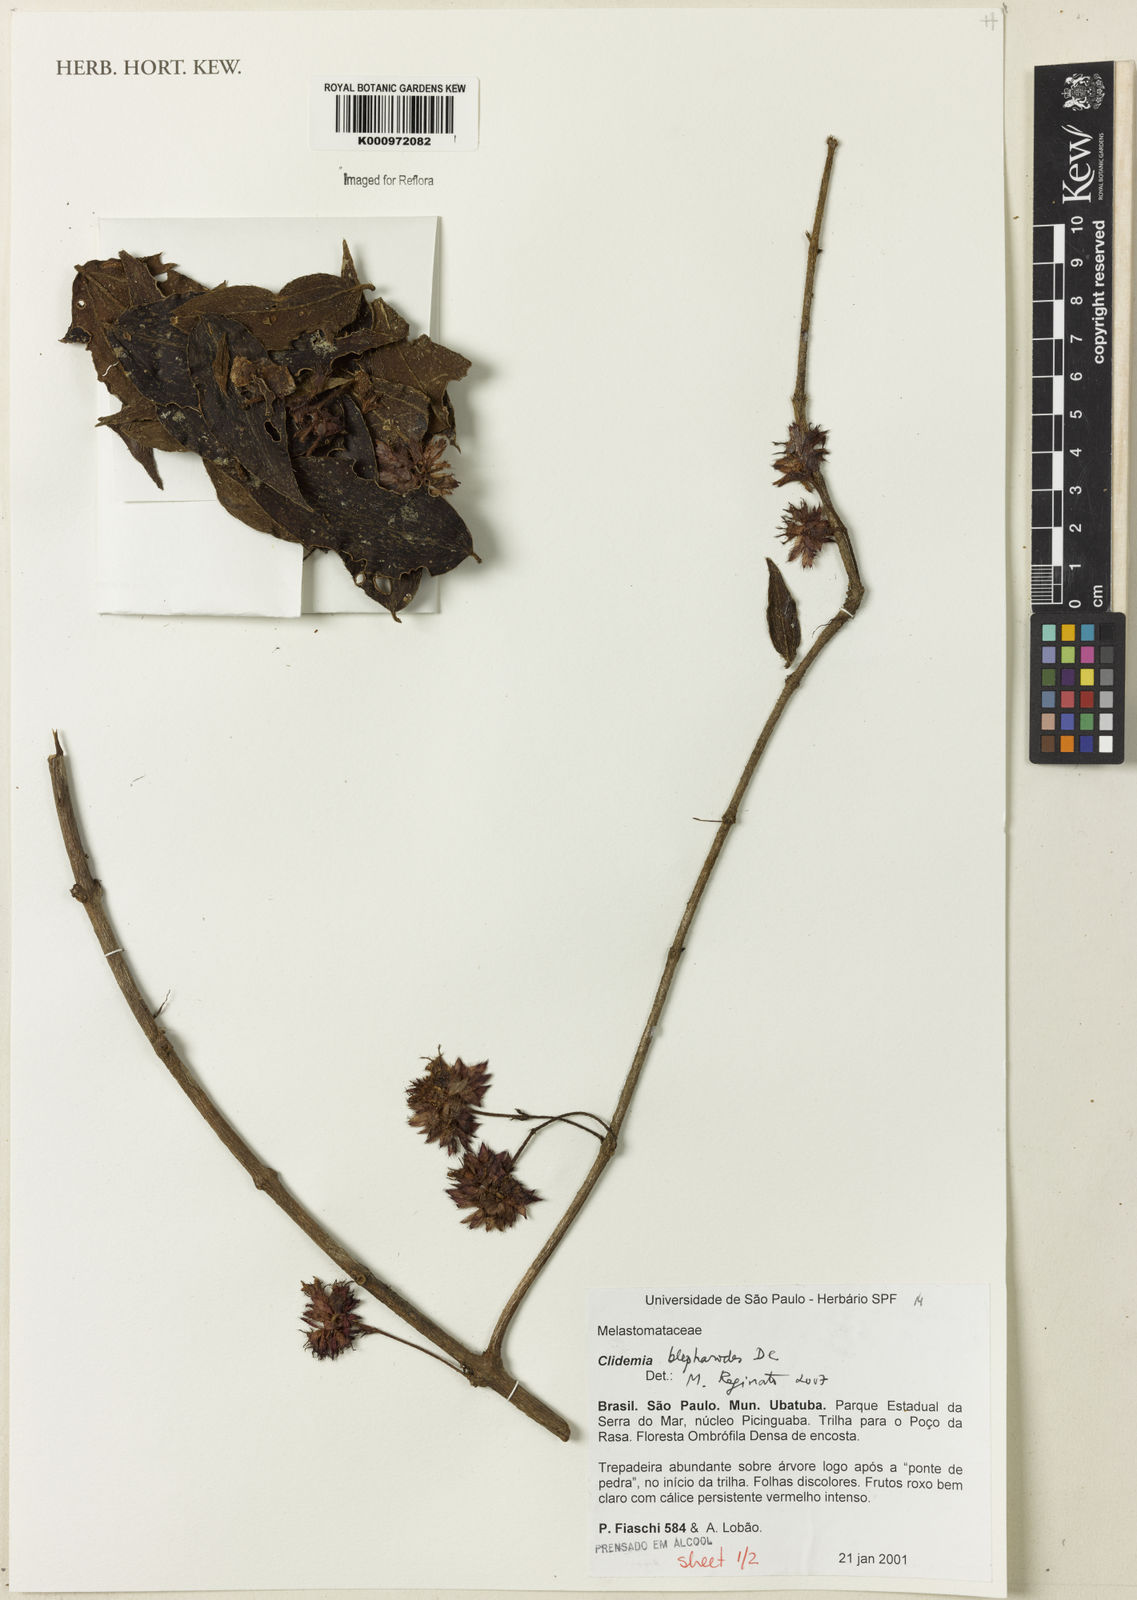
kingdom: Plantae
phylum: Tracheophyta
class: Magnoliopsida
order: Myrtales
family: Melastomataceae
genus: Miconia
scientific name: Miconia
